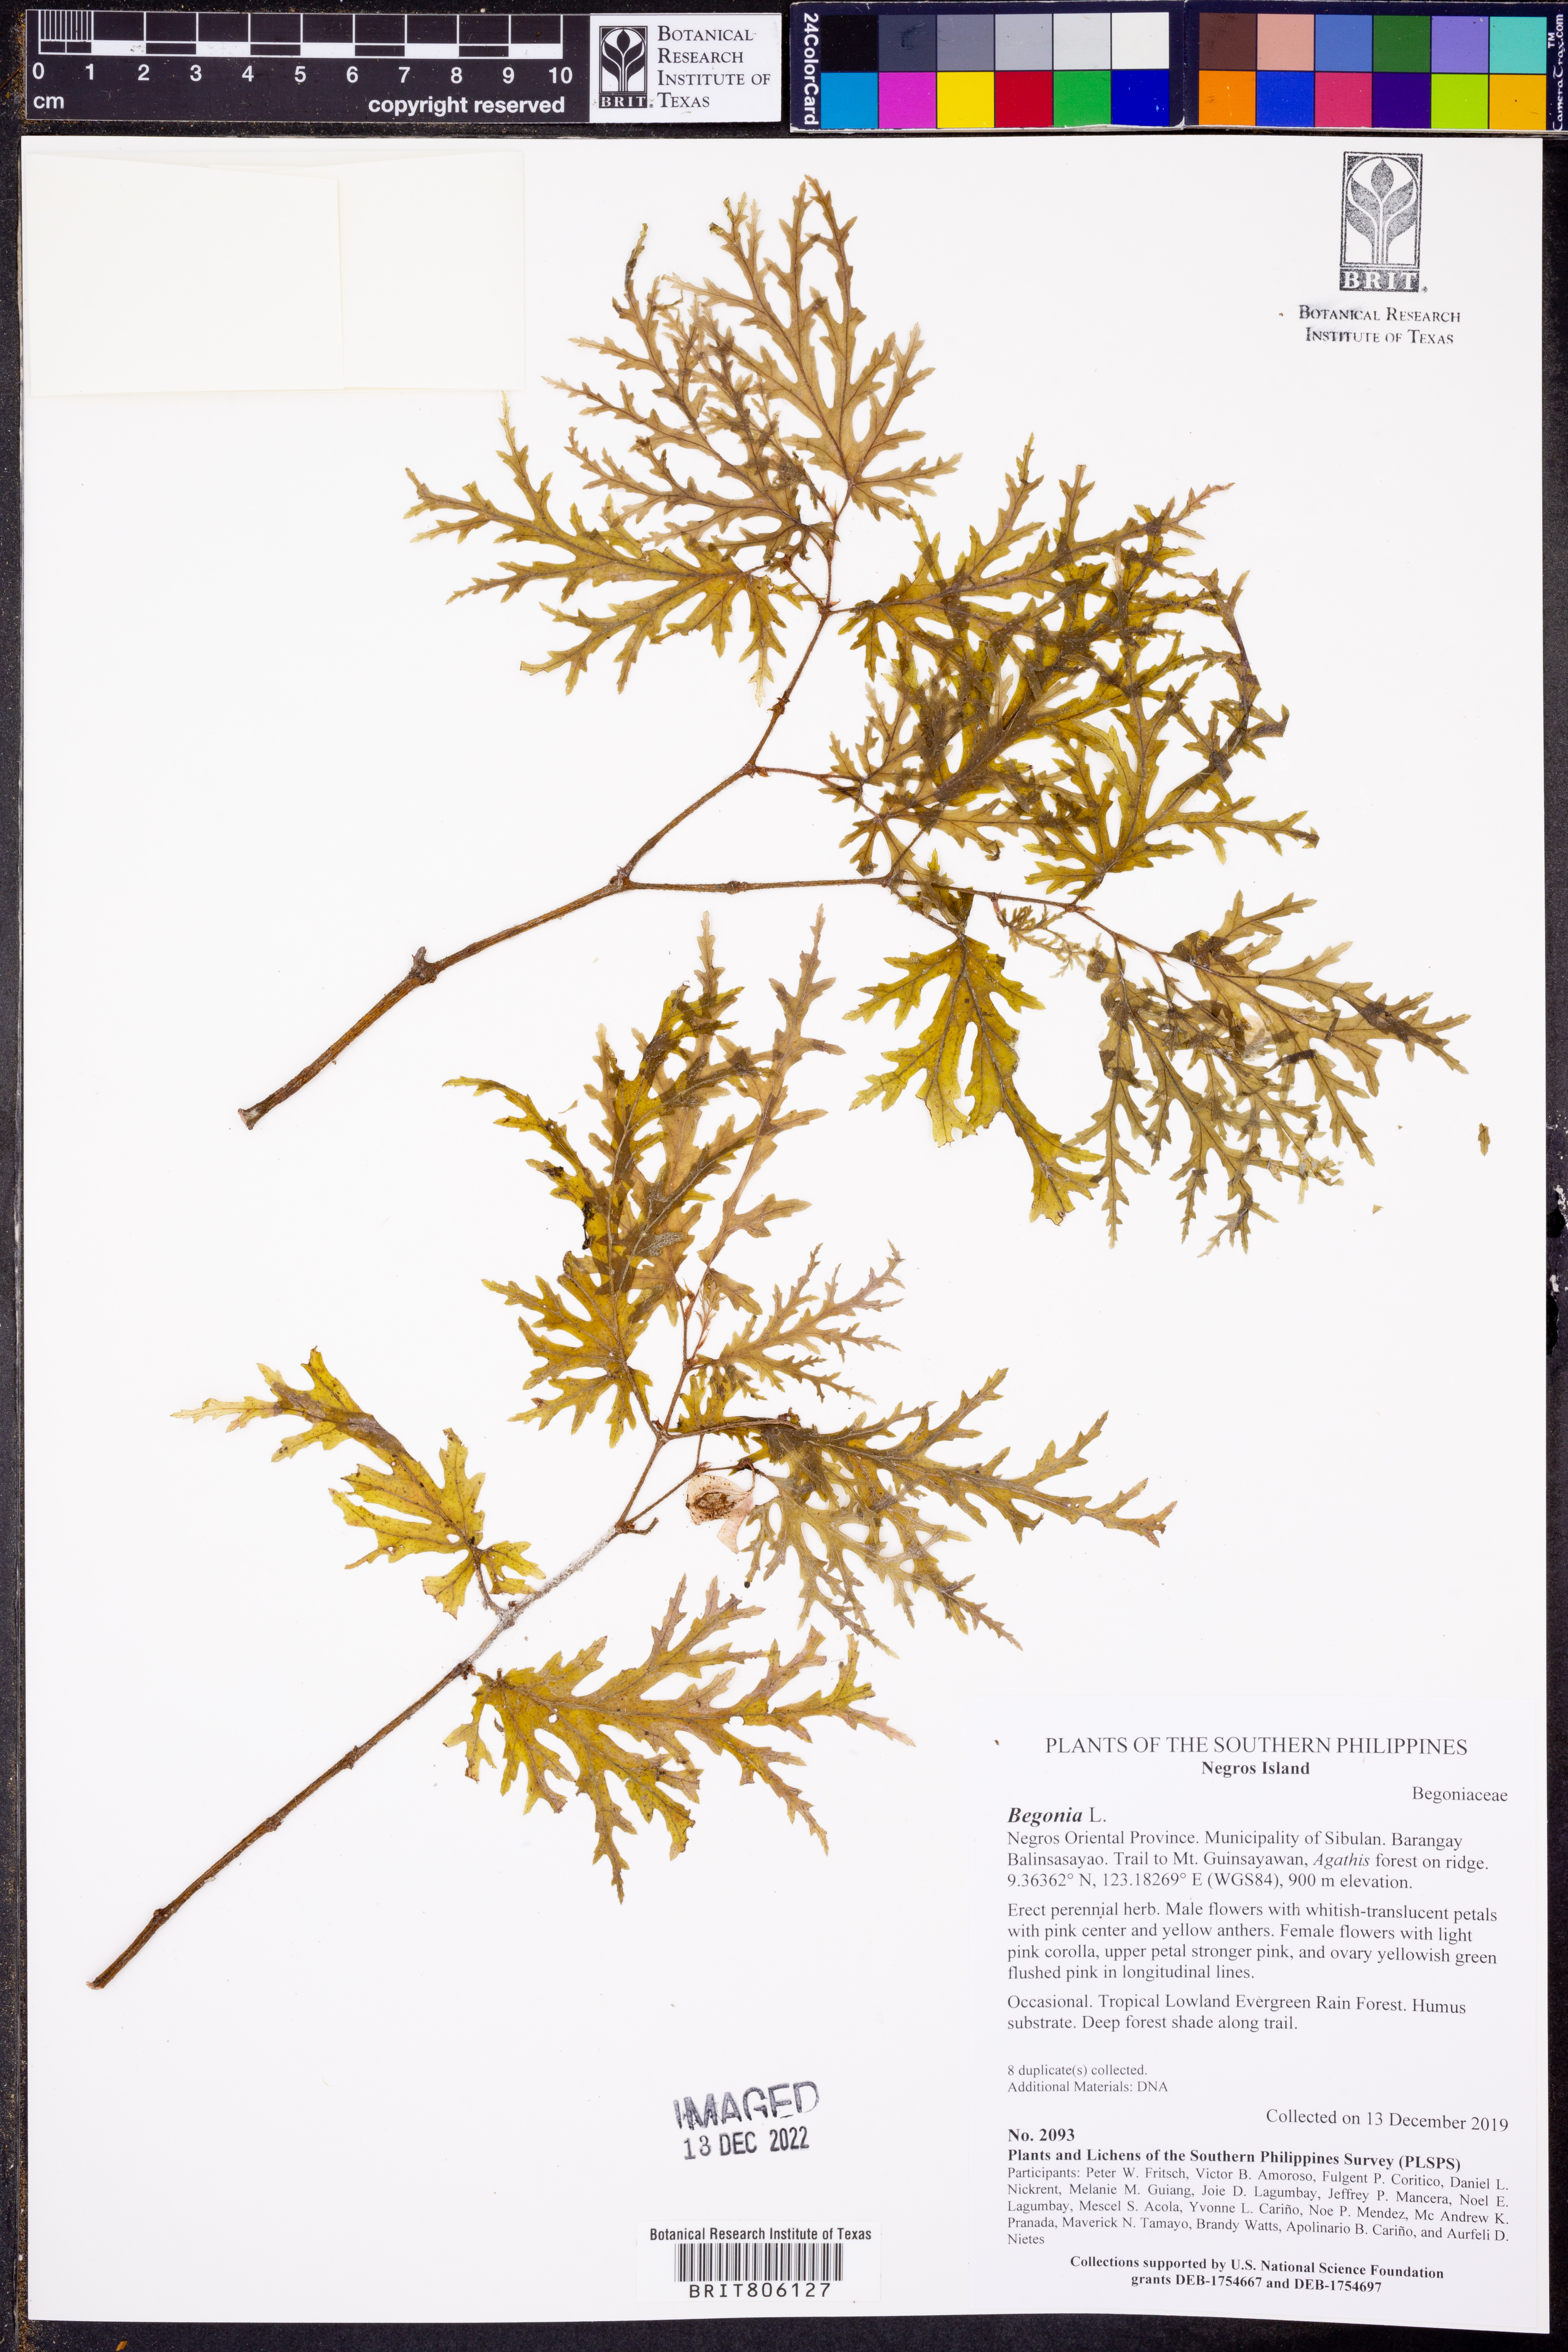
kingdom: Plantae
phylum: Tracheophyta
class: Magnoliopsida
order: Cucurbitales
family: Begoniaceae
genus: Begonia
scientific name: Begonia
